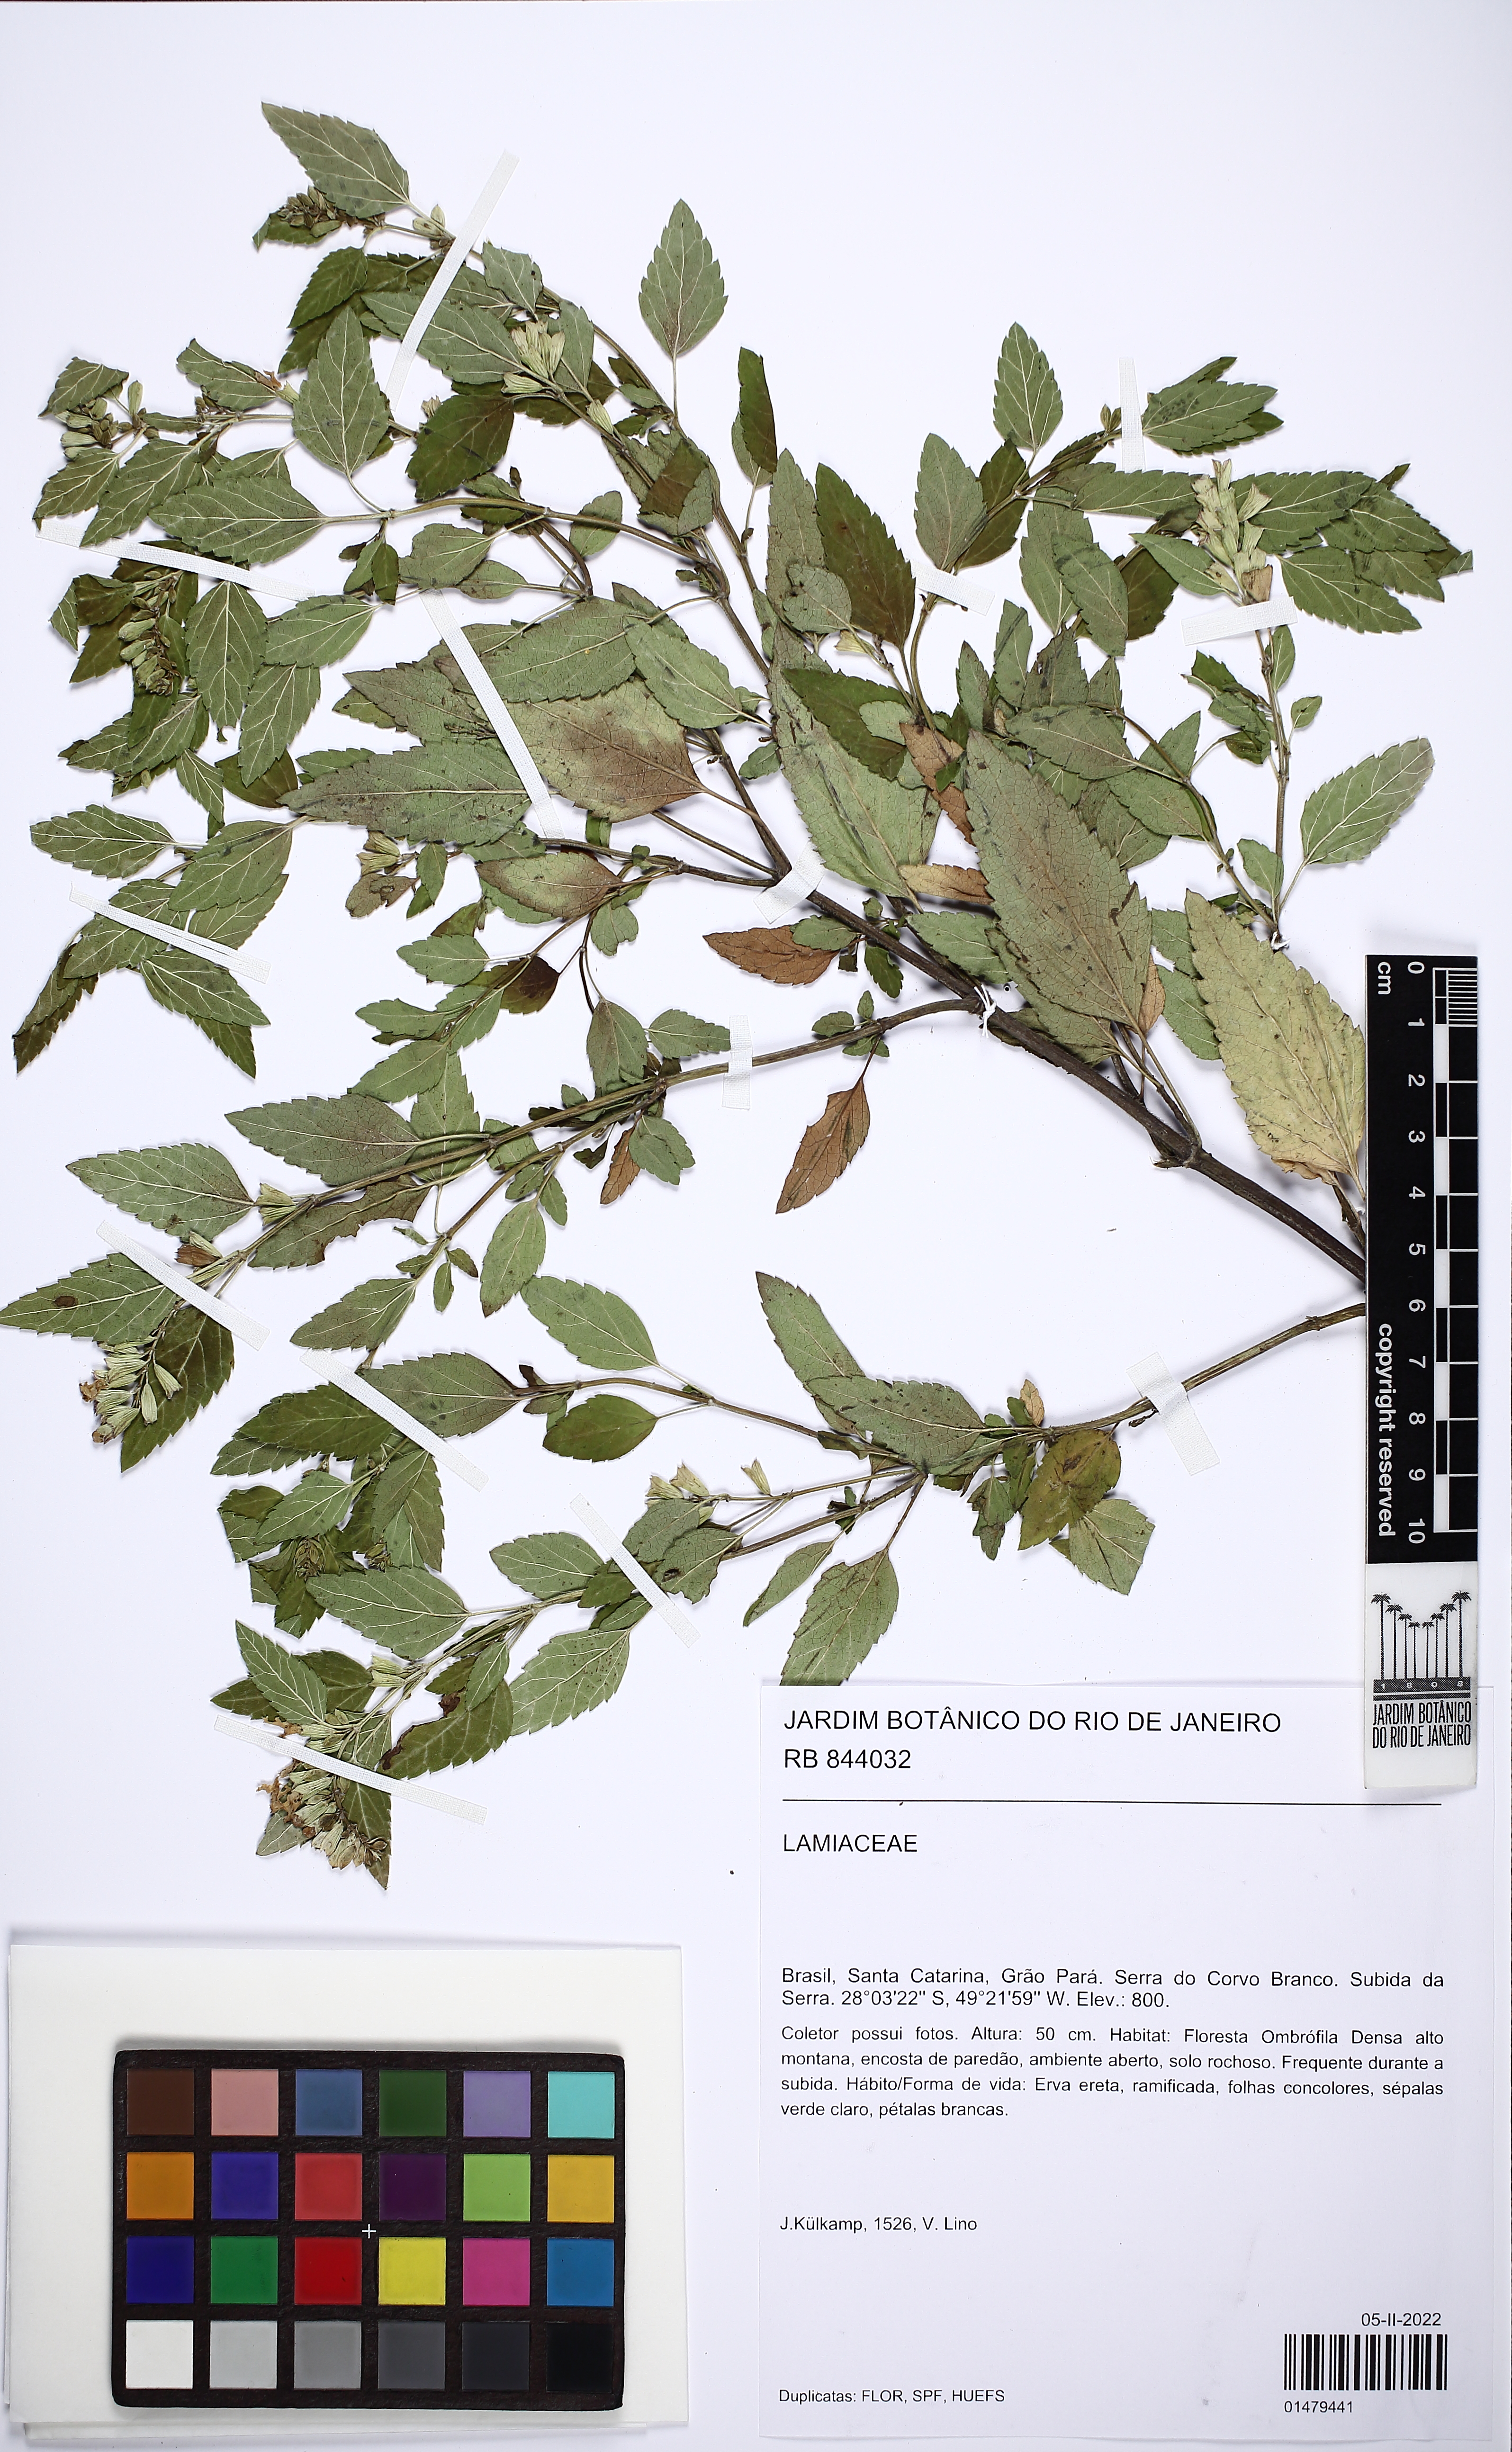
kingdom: Plantae
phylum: Tracheophyta
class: Magnoliopsida
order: Lamiales
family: Lamiaceae
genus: Salvia
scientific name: Salvia arenaria
